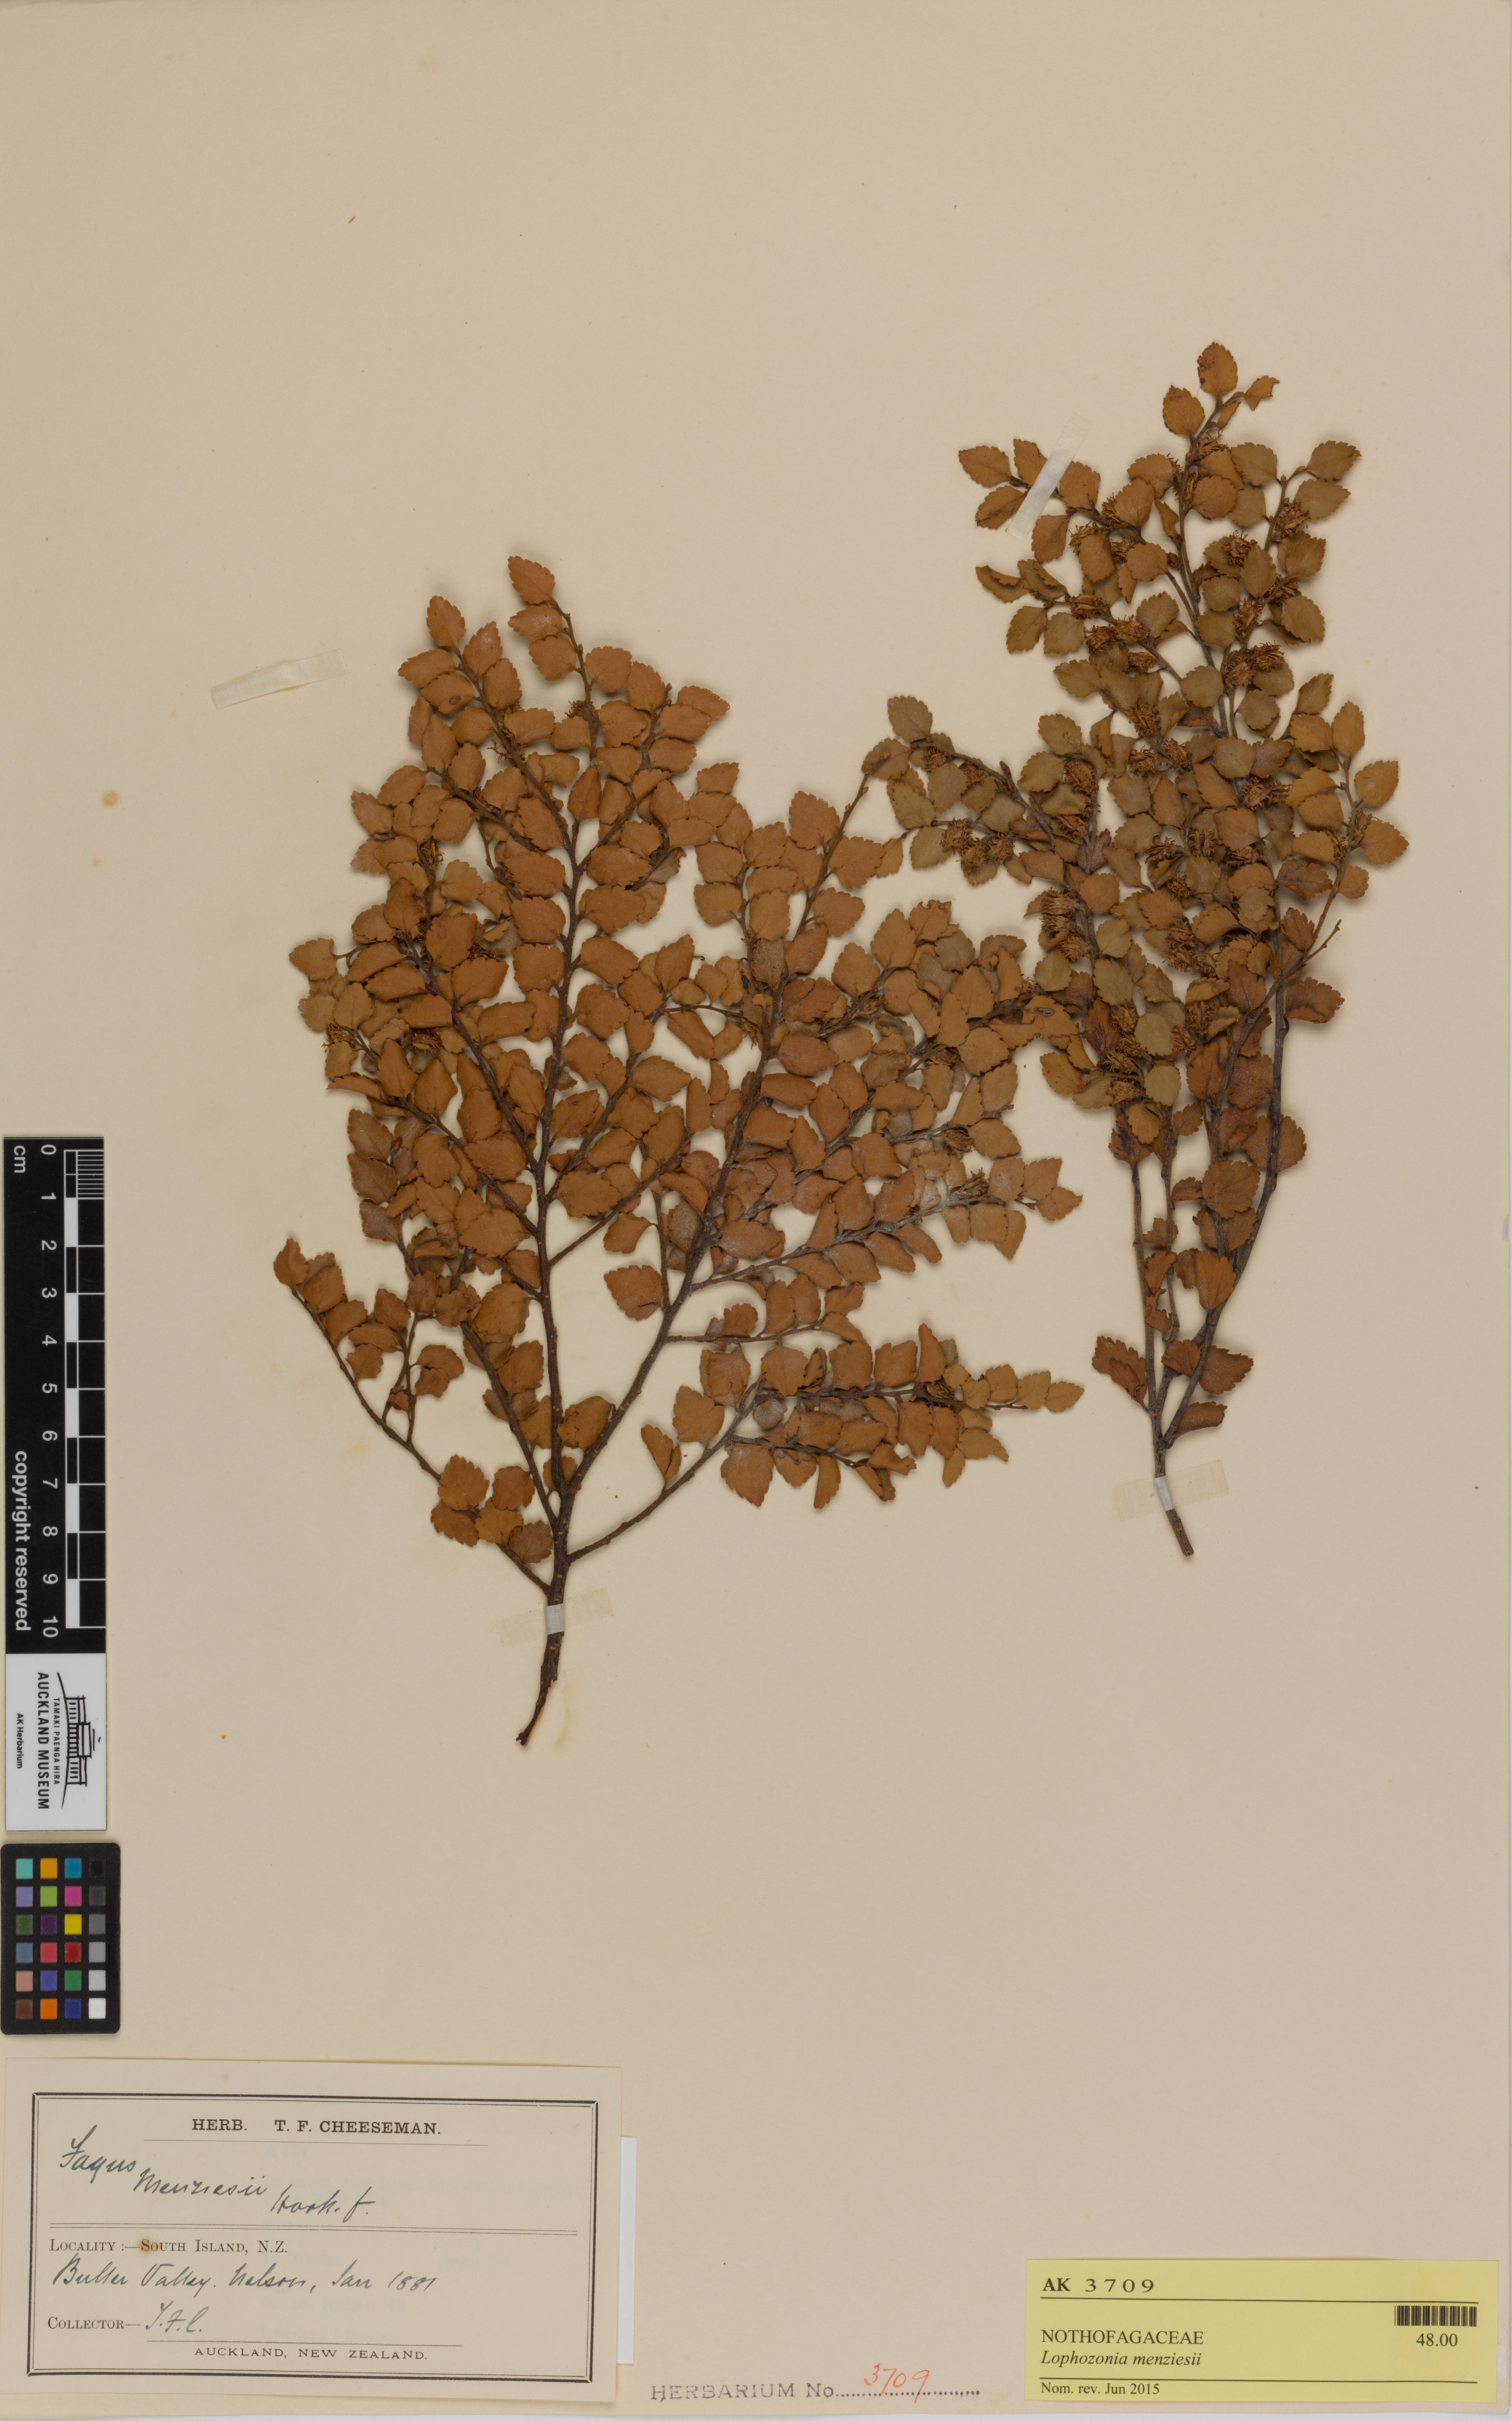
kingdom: Plantae
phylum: Tracheophyta
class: Magnoliopsida
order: Fagales
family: Nothofagaceae
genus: Nothofagus
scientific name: Nothofagus menziesii
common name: Silver beech
